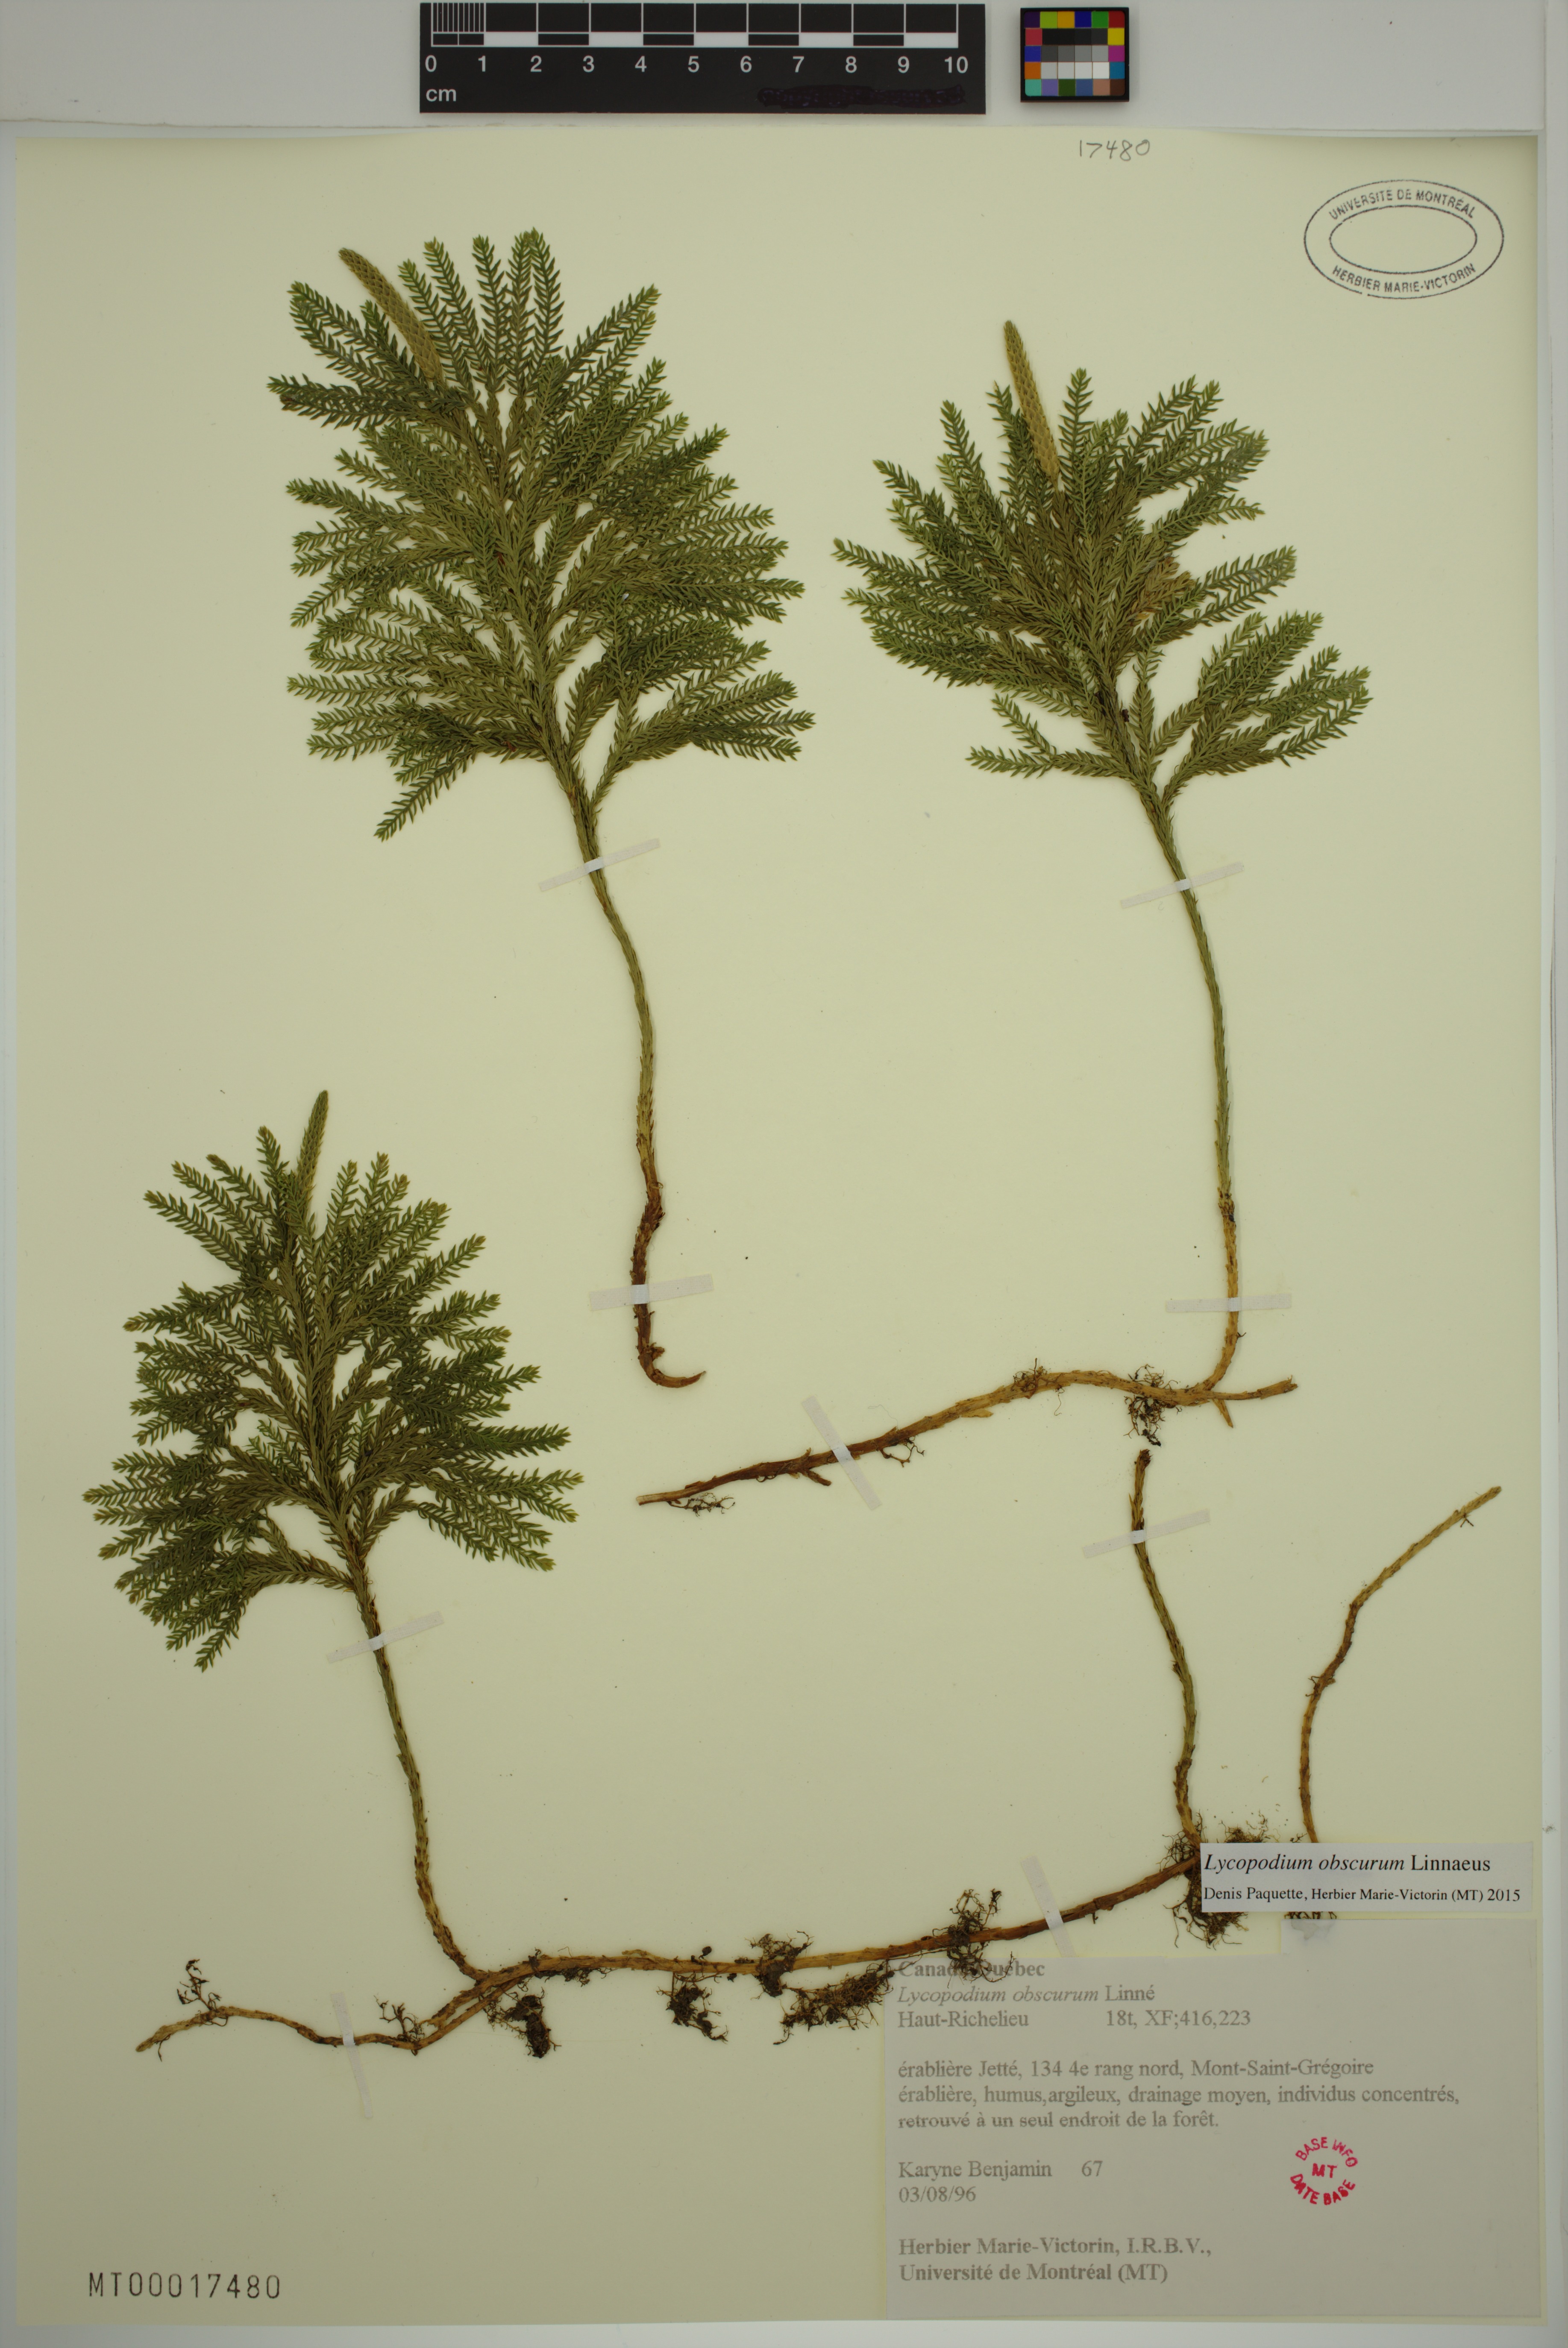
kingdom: Plantae
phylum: Tracheophyta
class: Lycopodiopsida
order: Lycopodiales
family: Lycopodiaceae
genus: Dendrolycopodium
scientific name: Dendrolycopodium obscurum
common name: Common ground-pine
